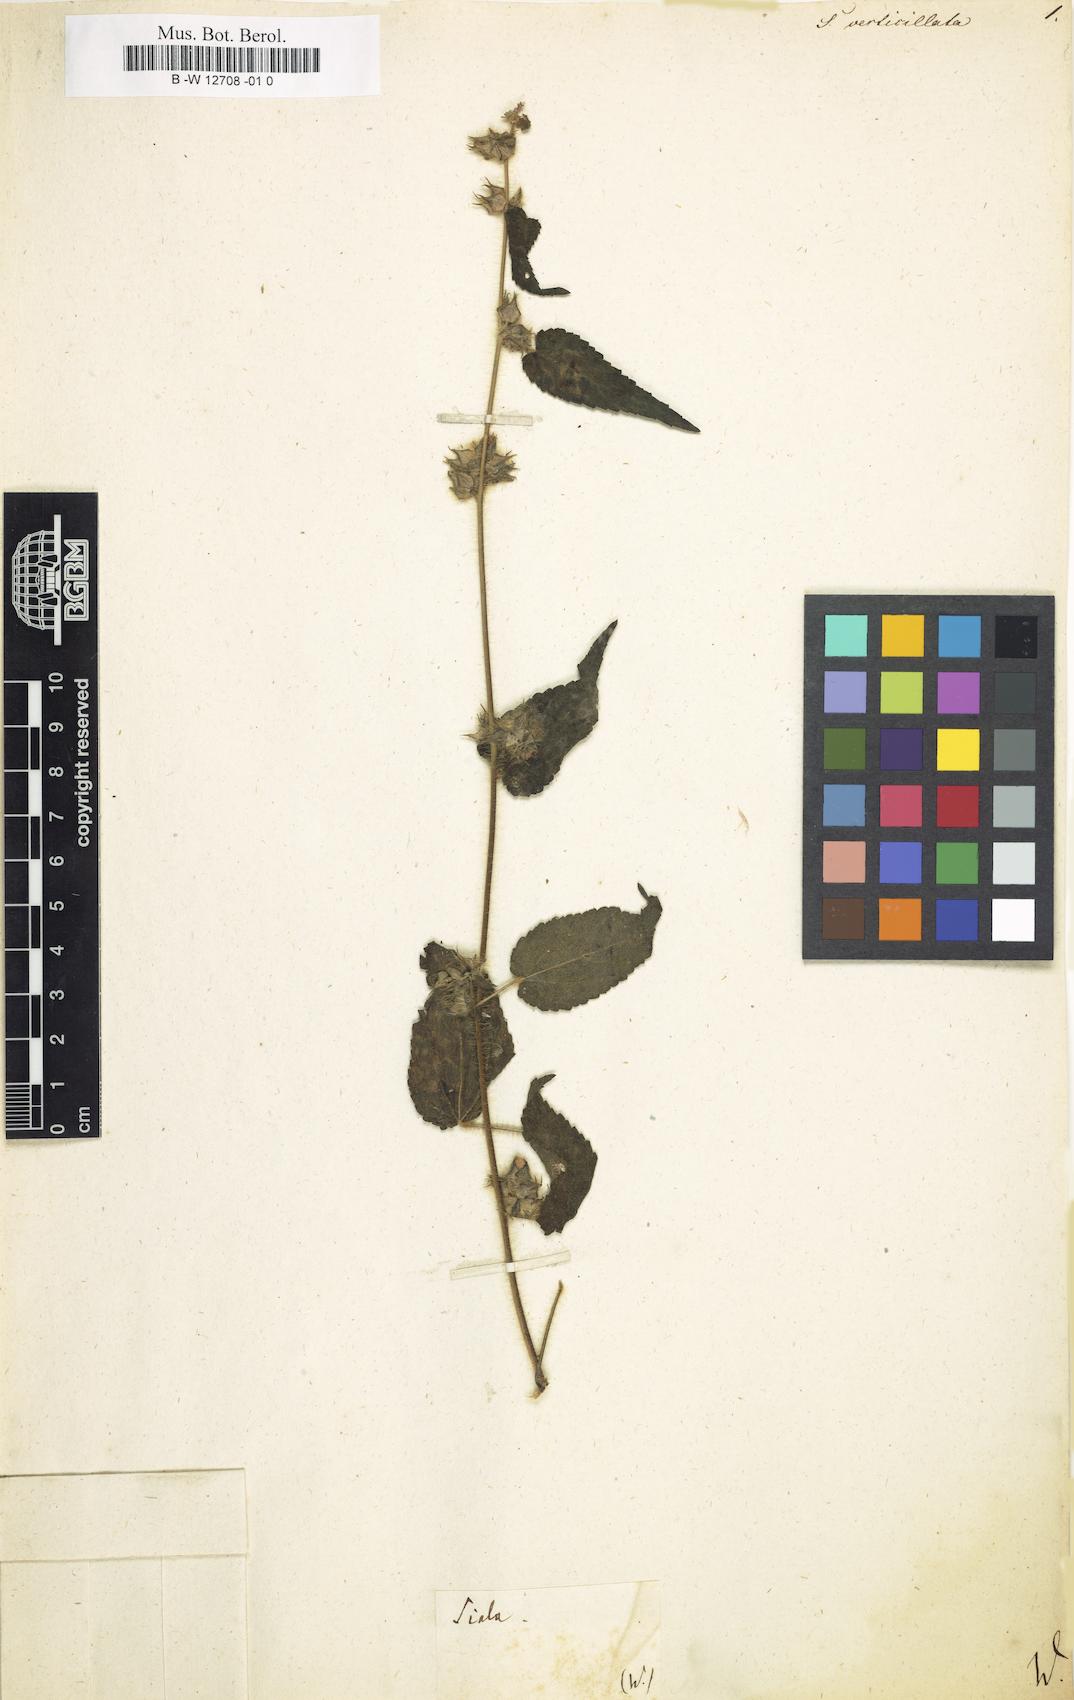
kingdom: Plantae
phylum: Tracheophyta
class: Magnoliopsida
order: Malvales
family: Malvaceae
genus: Sida
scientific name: Sida urens
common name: Tropical fanpetals
